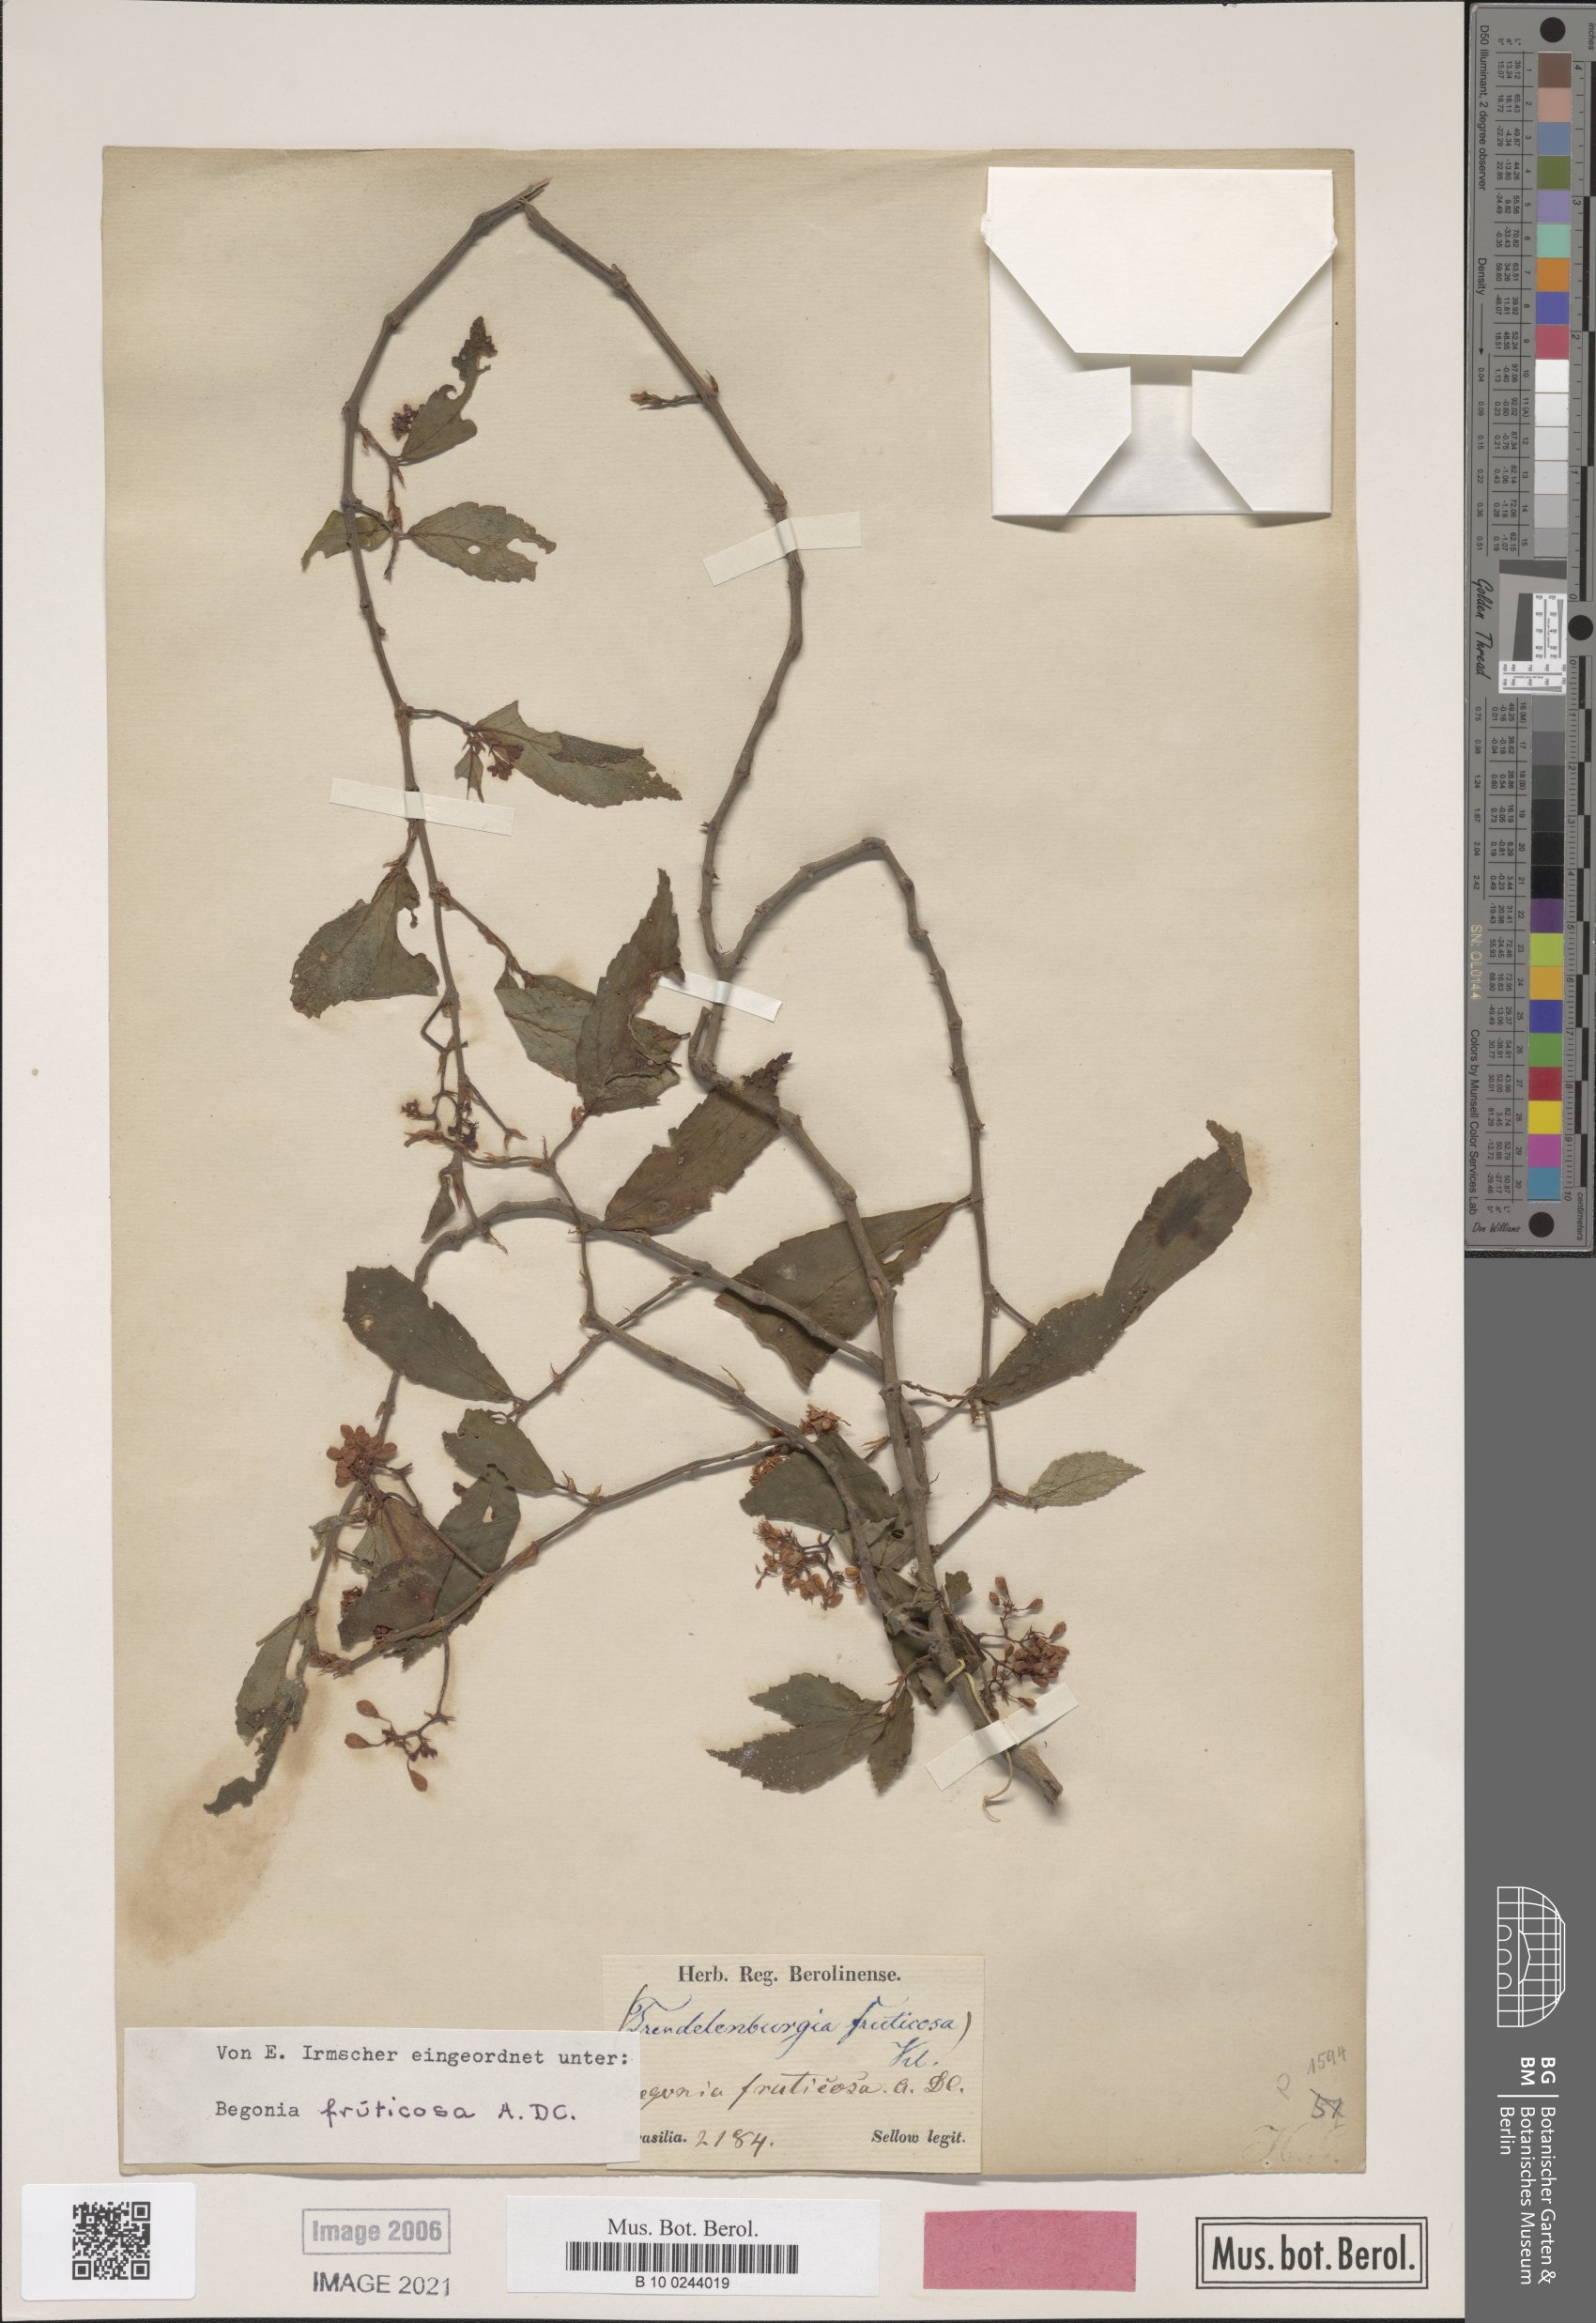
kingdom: Plantae
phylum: Tracheophyta
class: Magnoliopsida
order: Cucurbitales
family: Begoniaceae
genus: Begonia
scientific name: Begonia fruticosa
